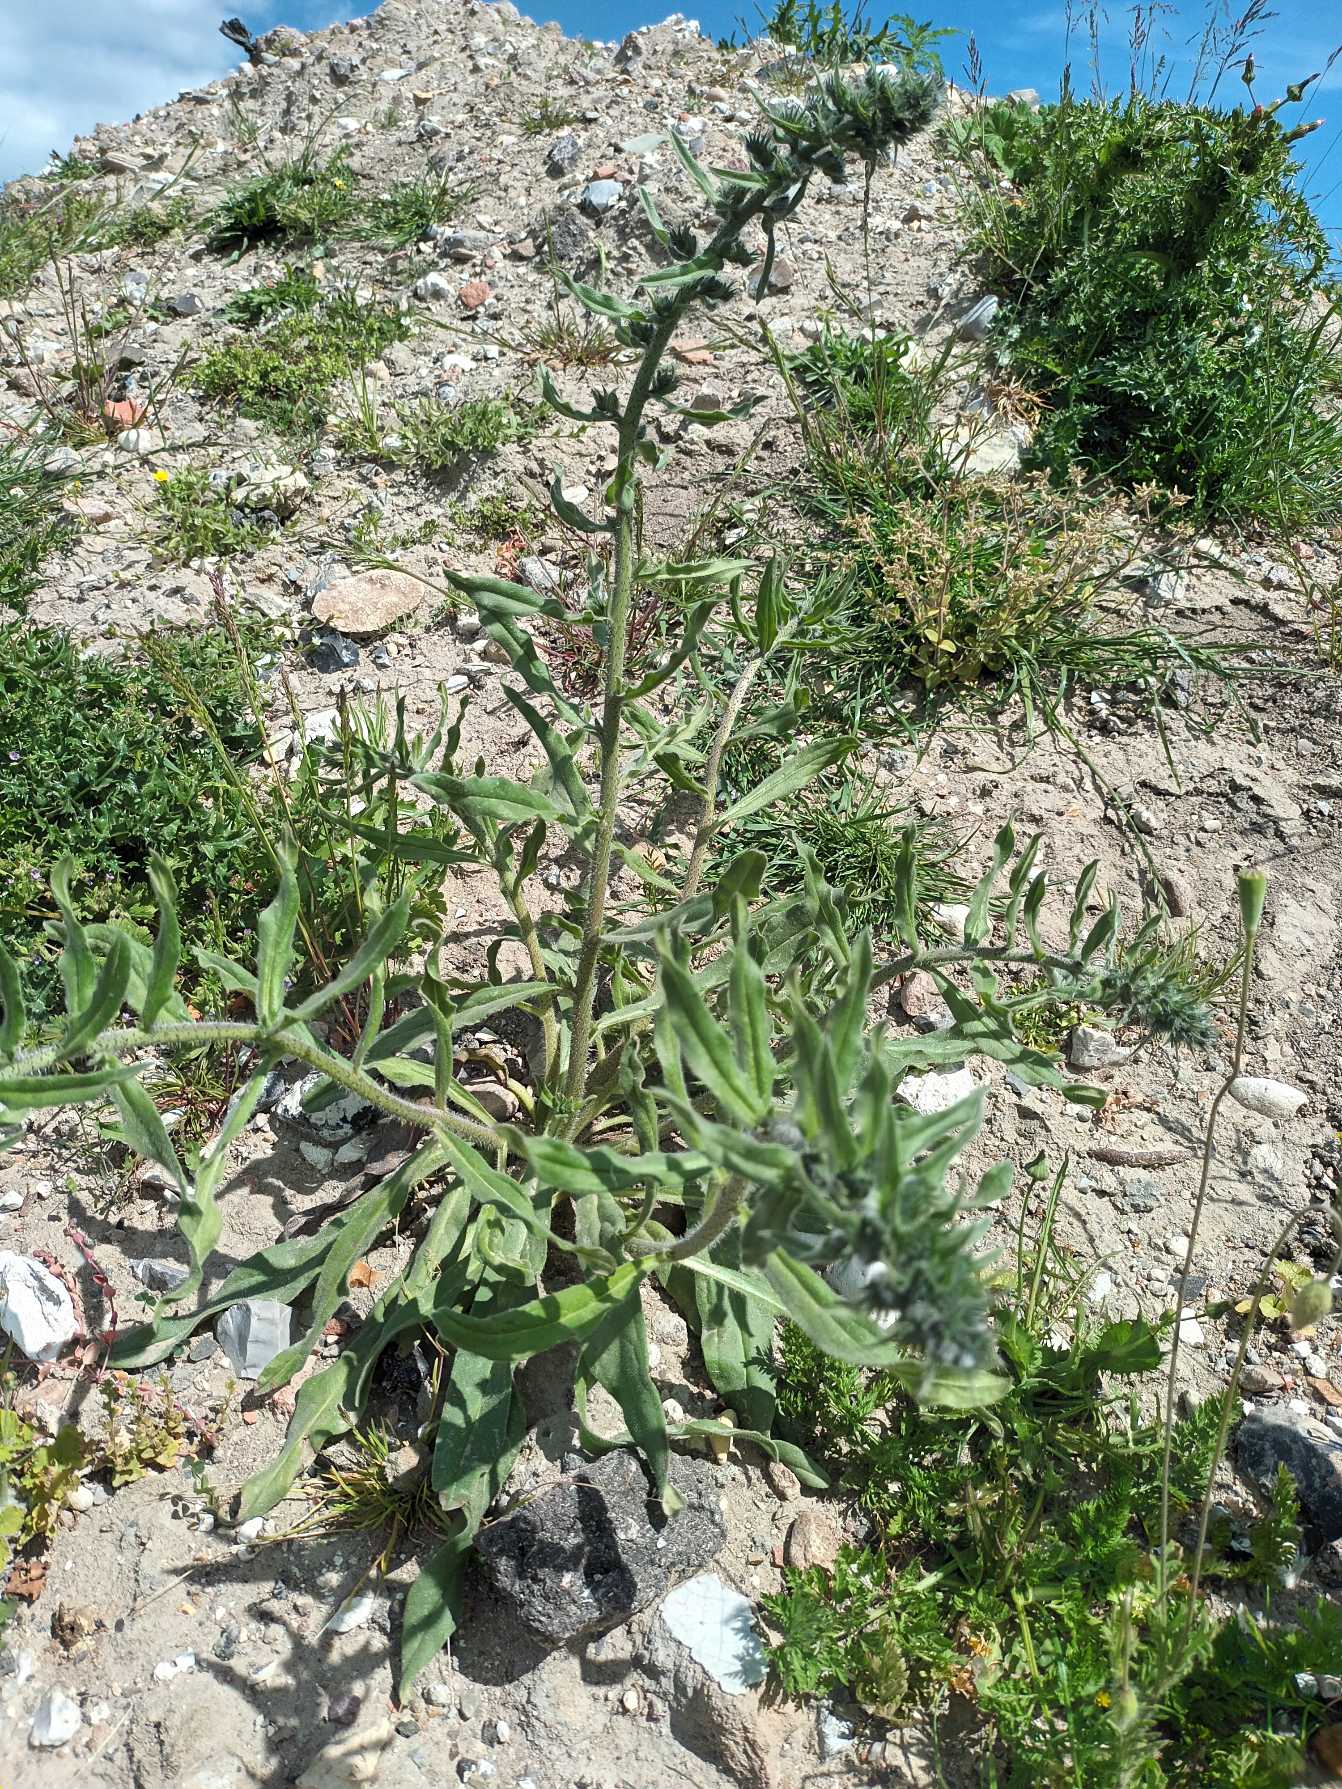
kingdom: Plantae
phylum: Tracheophyta
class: Magnoliopsida
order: Boraginales
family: Boraginaceae
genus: Echium
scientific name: Echium vulgare
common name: Slangehoved
